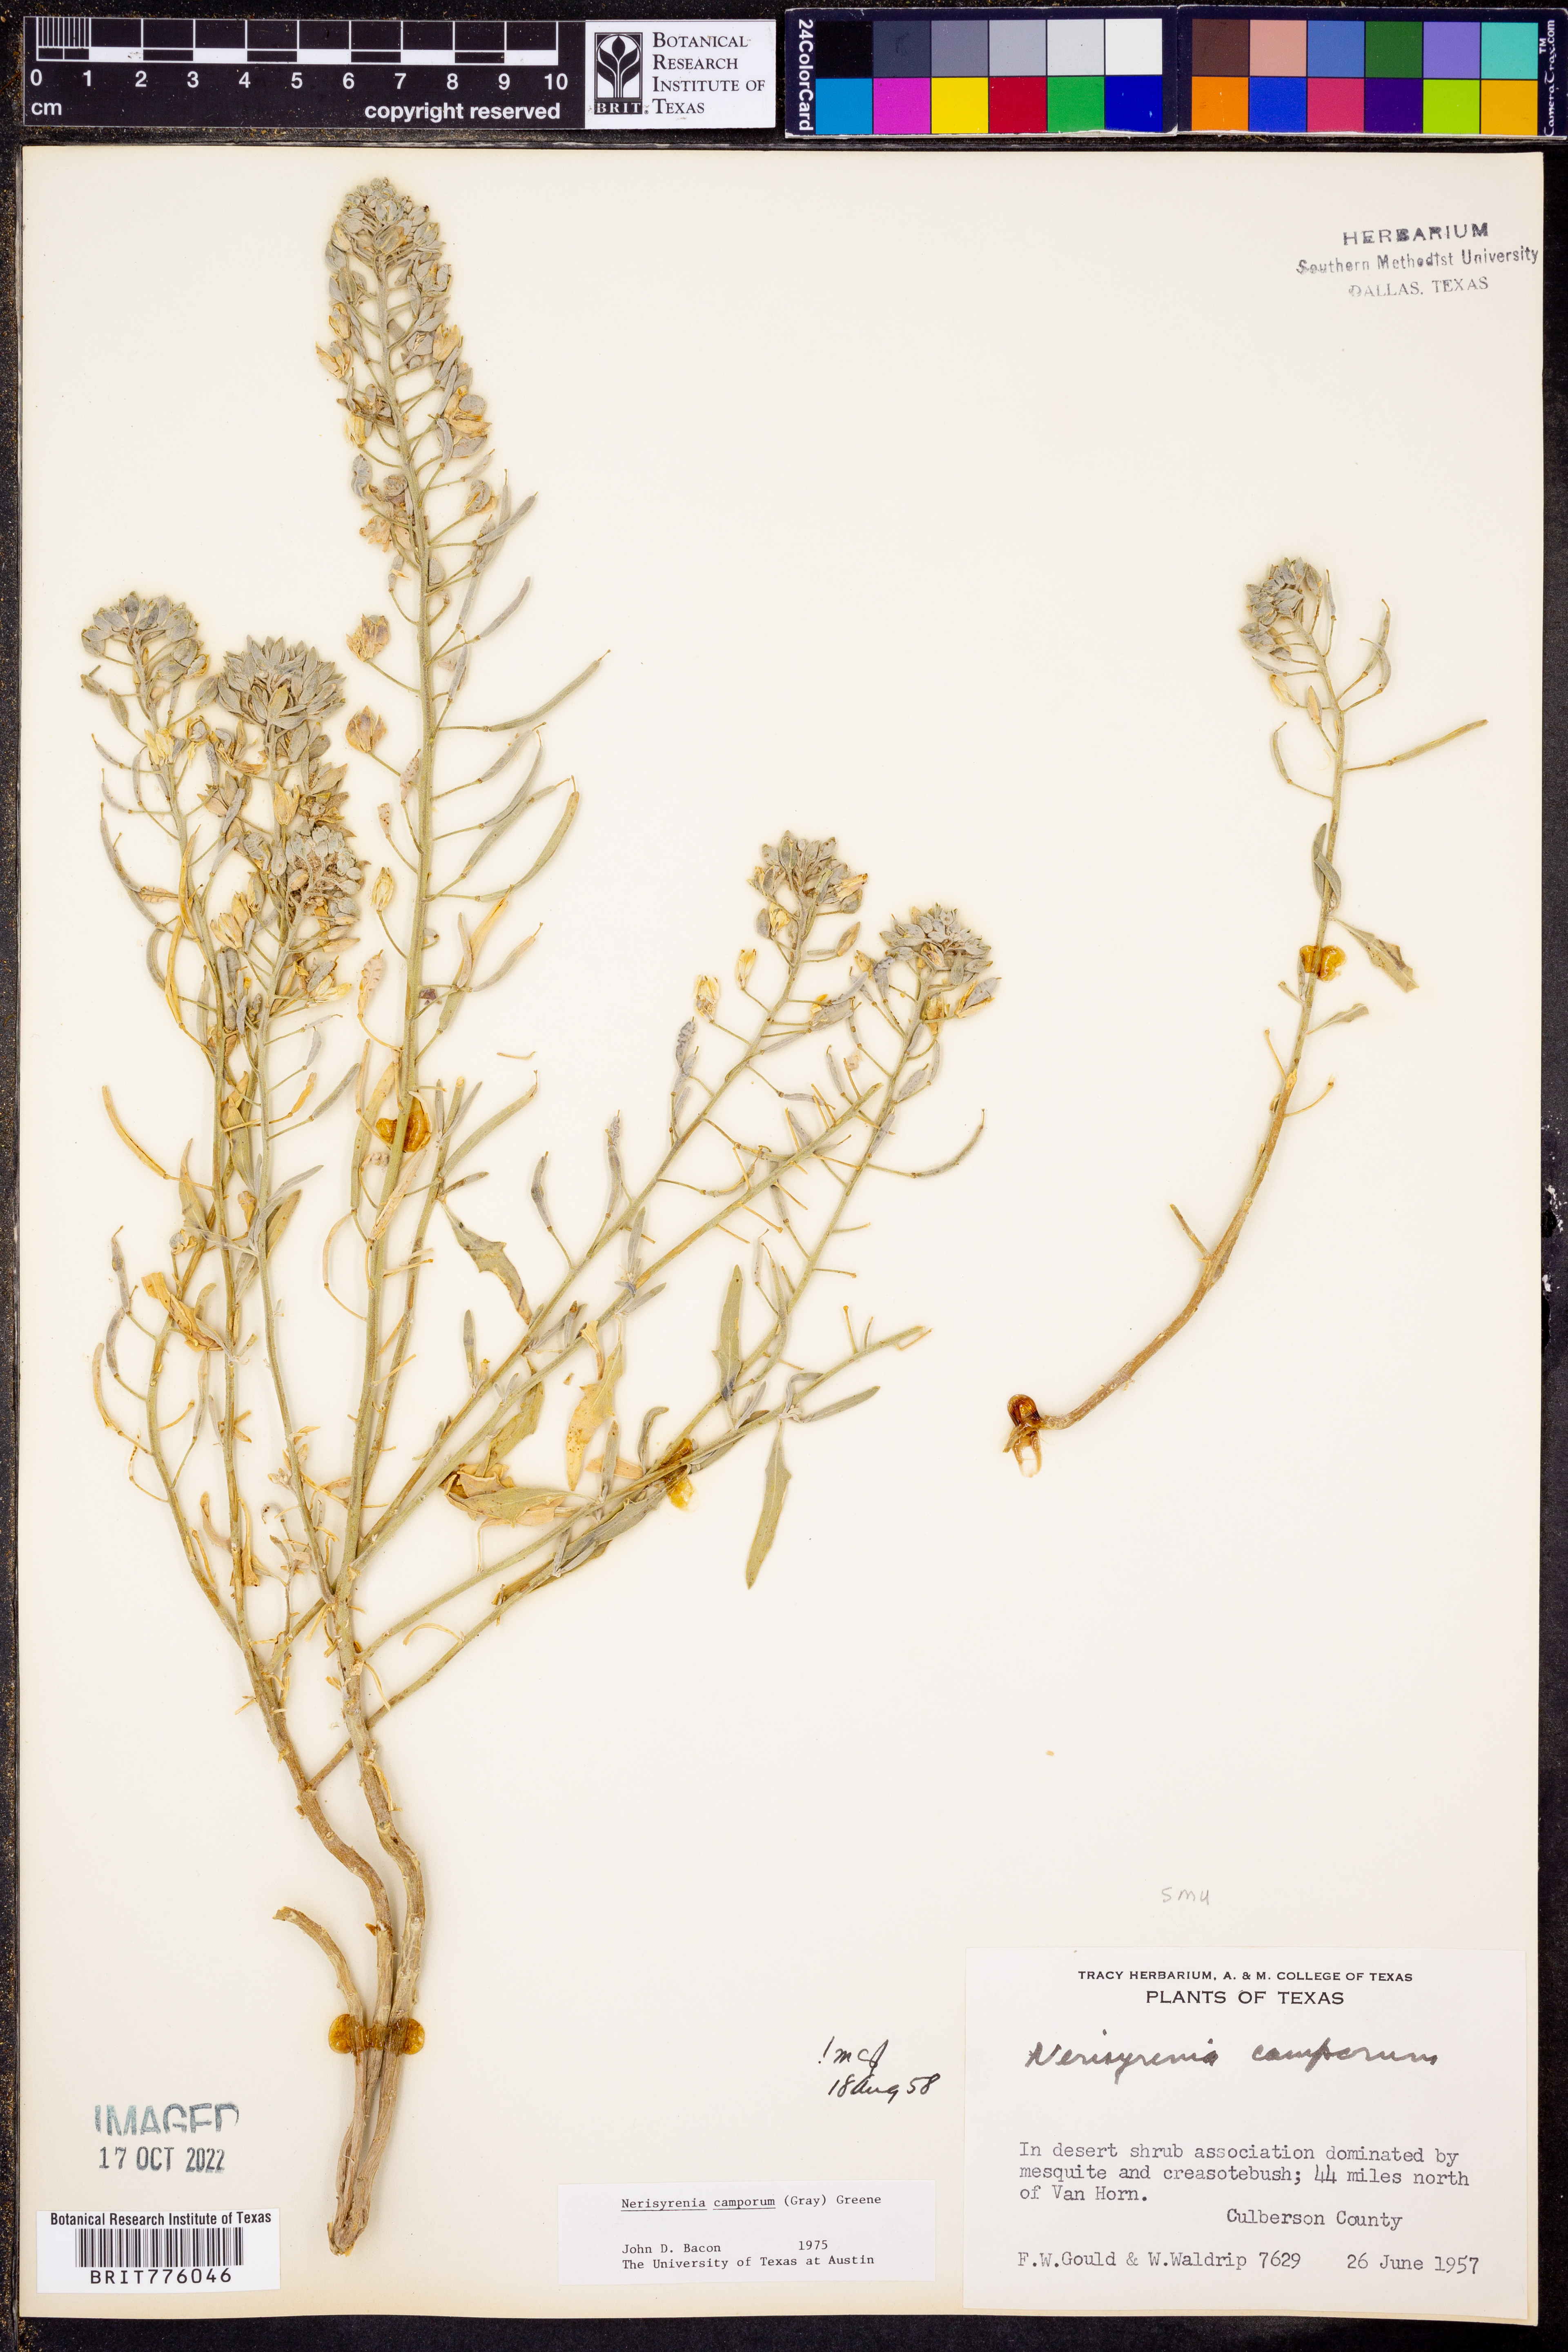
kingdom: Plantae
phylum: Tracheophyta
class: Magnoliopsida
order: Brassicales
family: Brassicaceae
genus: Nerisyrenia
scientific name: Nerisyrenia camporum
